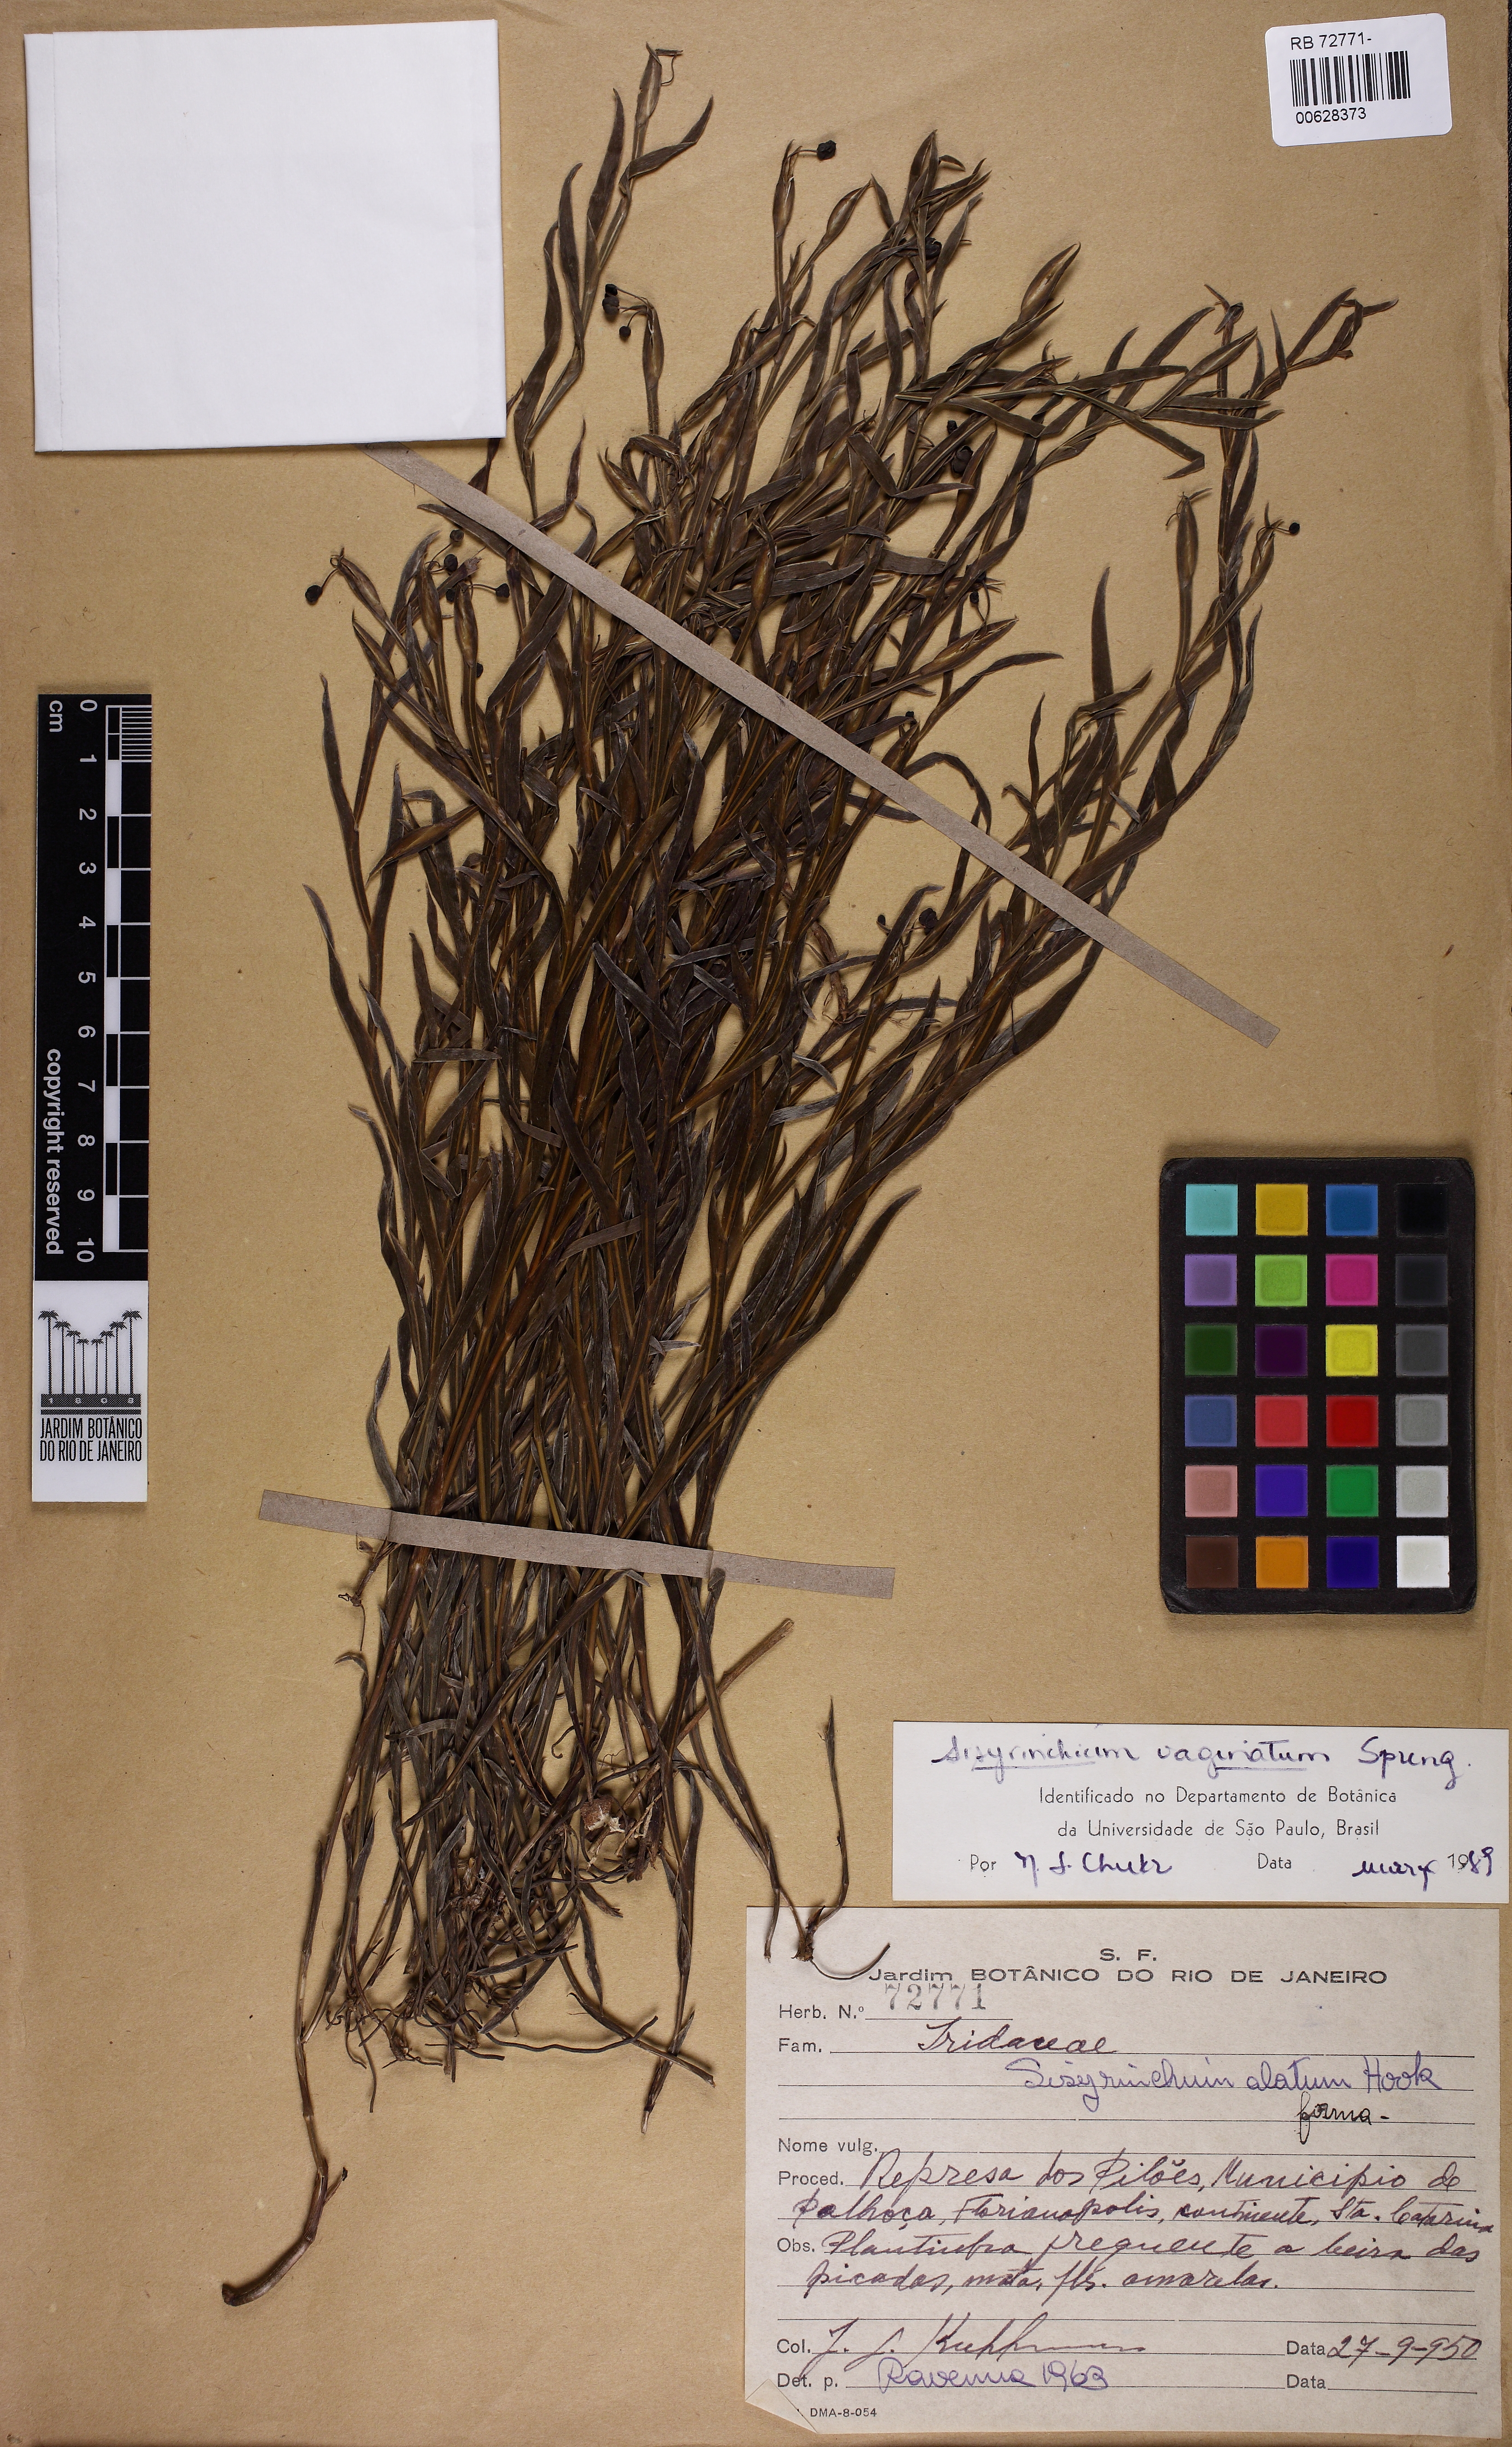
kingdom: Plantae
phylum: Tracheophyta
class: Liliopsida
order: Asparagales
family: Iridaceae
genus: Sisyrinchium
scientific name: Sisyrinchium vaginatum
